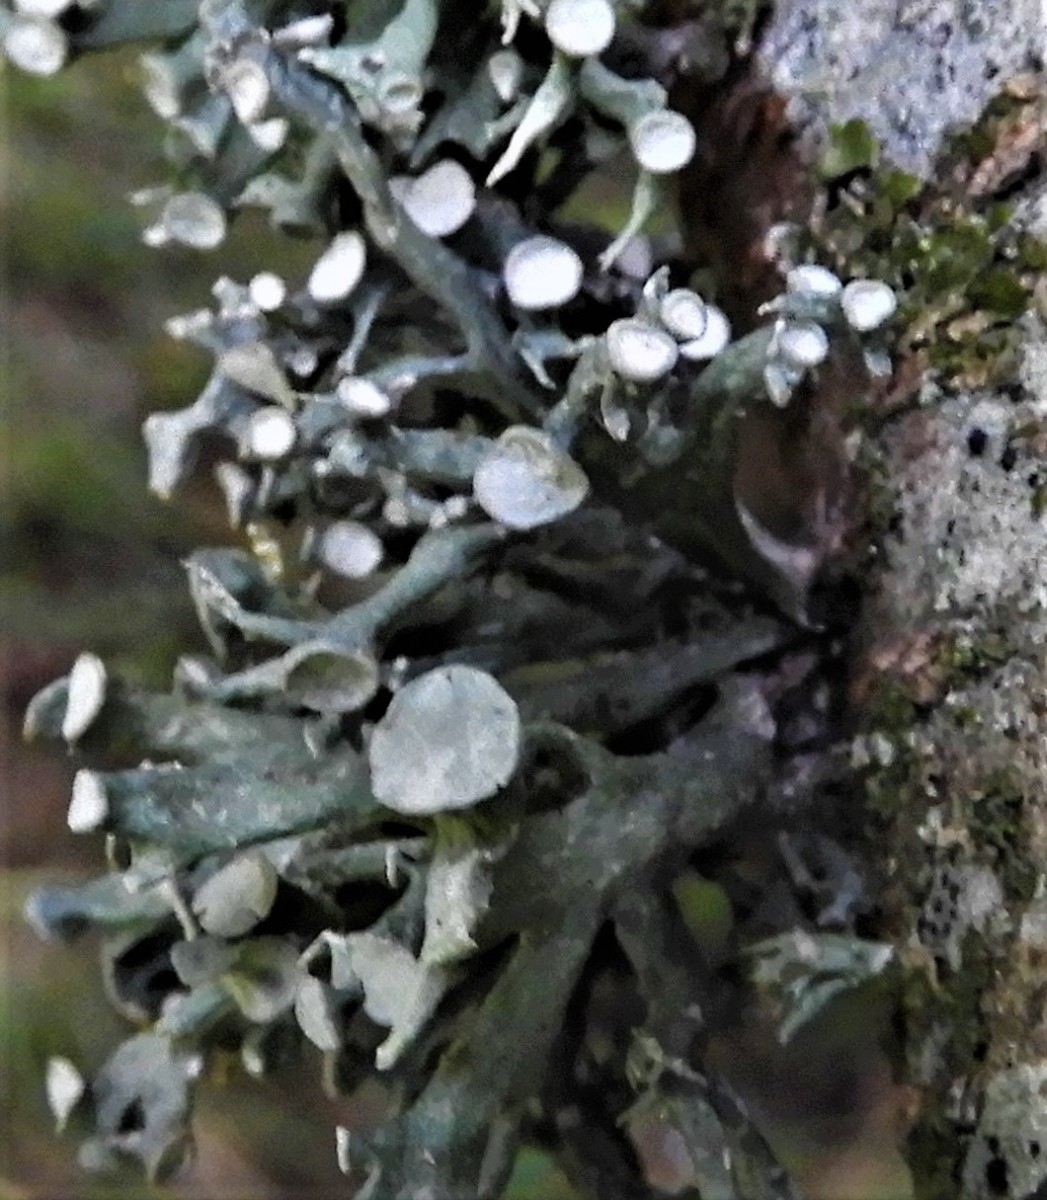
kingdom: Fungi
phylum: Ascomycota
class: Lecanoromycetes
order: Lecanorales
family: Ramalinaceae
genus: Ramalina
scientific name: Ramalina fastigiata
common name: tue-grenlav
